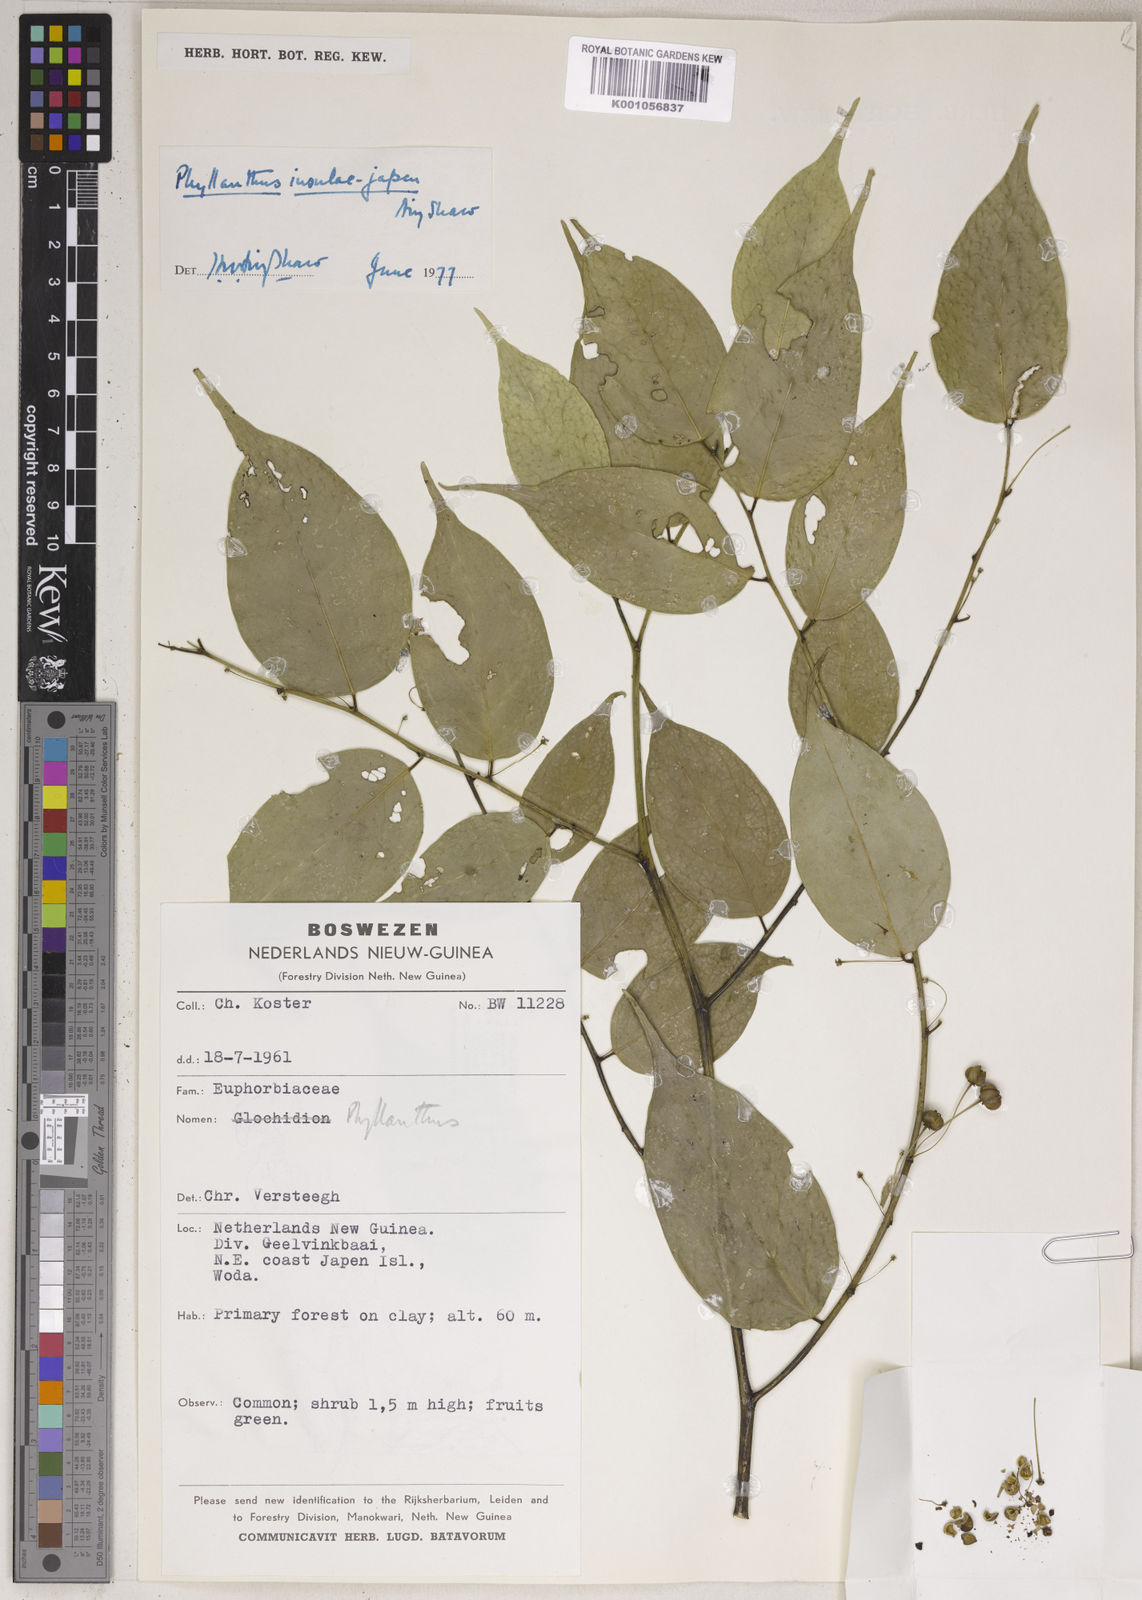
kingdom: Plantae
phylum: Tracheophyta
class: Magnoliopsida
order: Malpighiales
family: Phyllanthaceae
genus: Phyllanthus
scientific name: Phyllanthus insulae-japen
